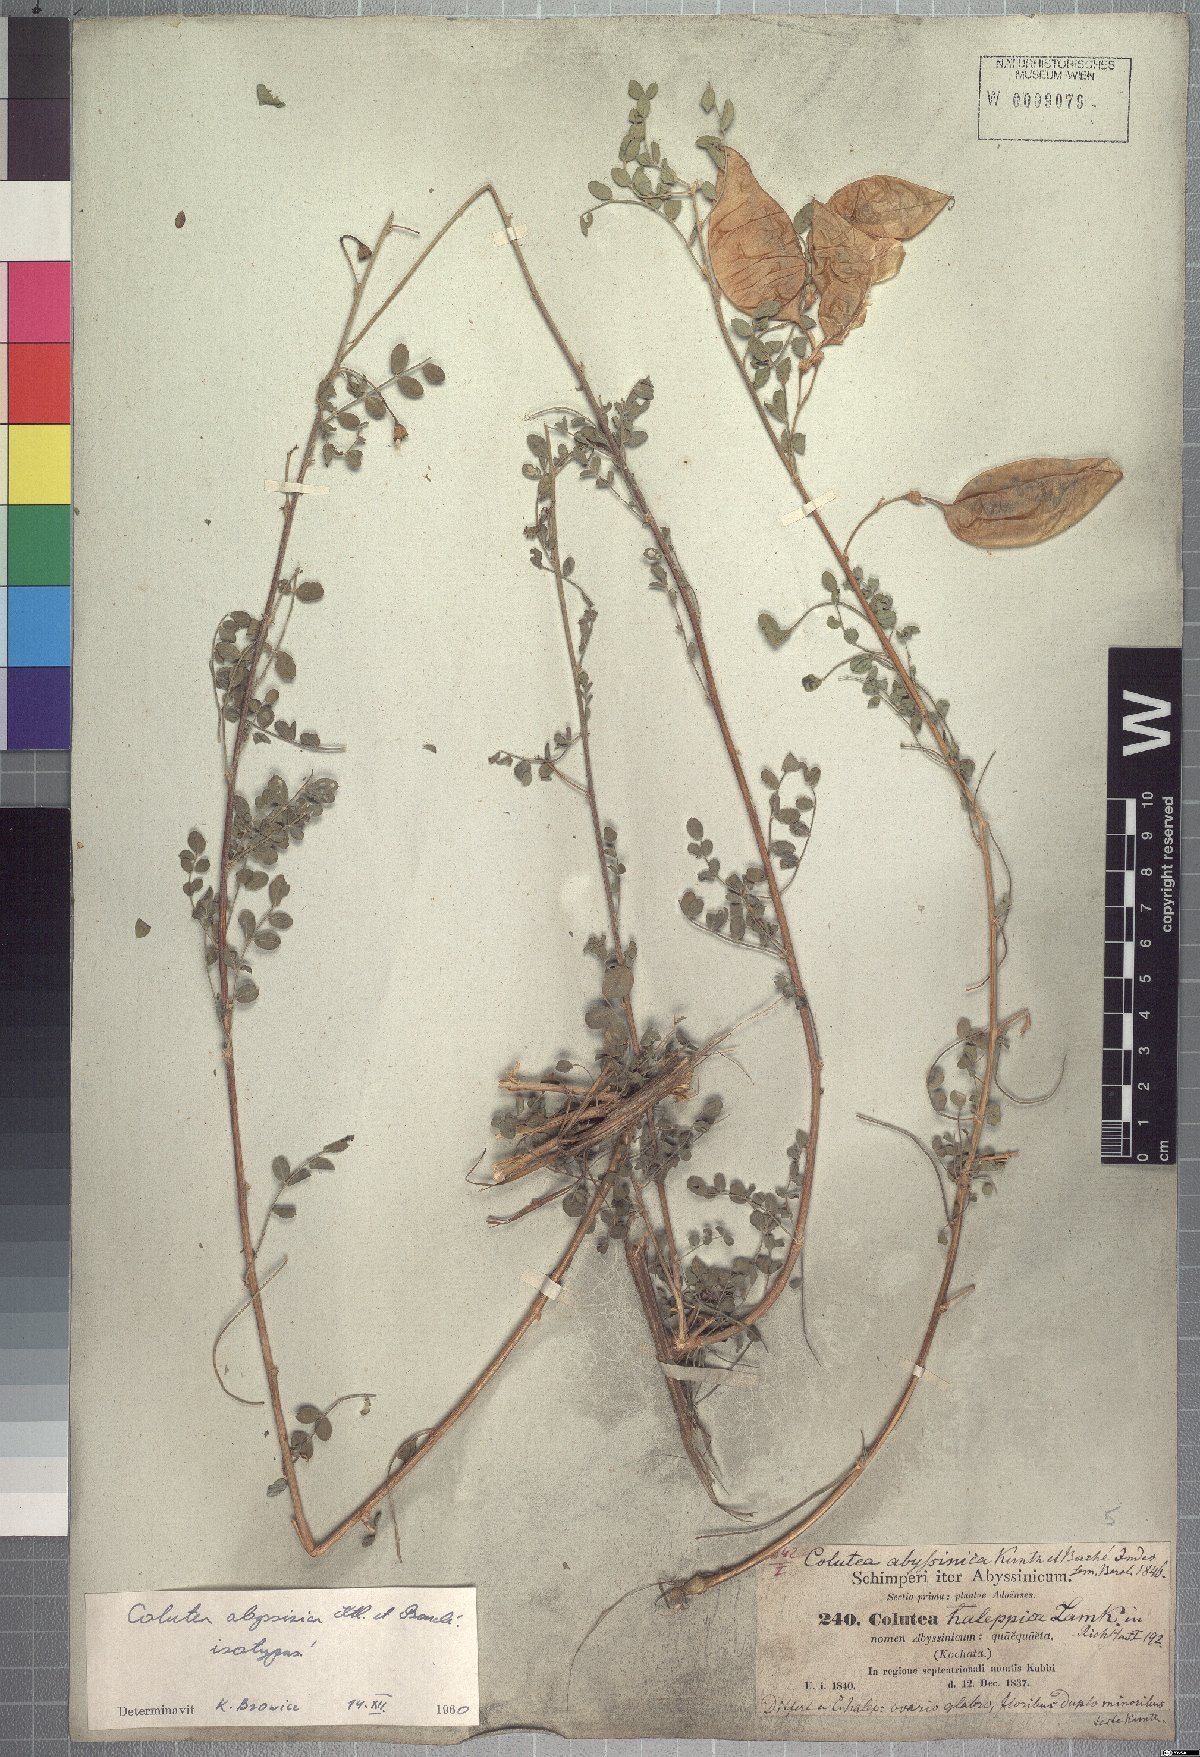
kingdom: Plantae
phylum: Tracheophyta
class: Magnoliopsida
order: Fabales
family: Fabaceae
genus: Colutea
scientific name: Colutea abyssinica
